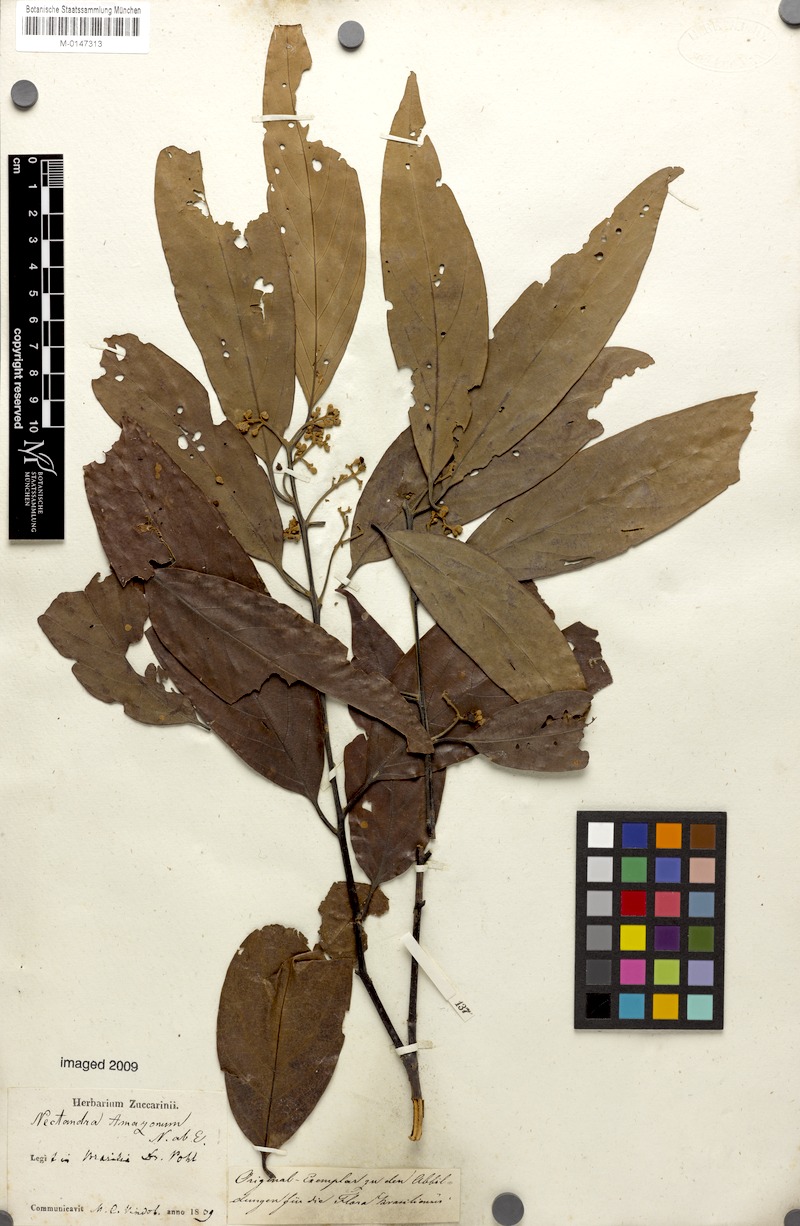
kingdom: Plantae
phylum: Tracheophyta
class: Magnoliopsida
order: Laurales
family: Lauraceae
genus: Nectandra
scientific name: Nectandra amazonum
